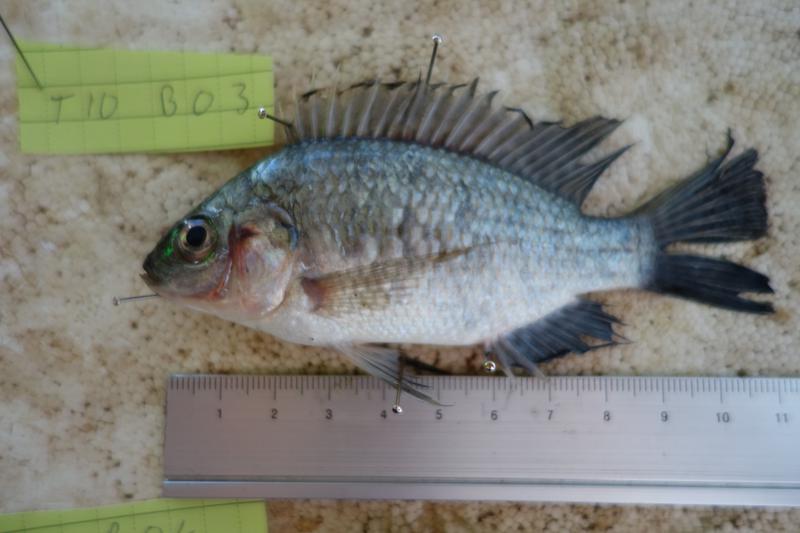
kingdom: Animalia
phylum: Chordata
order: Perciformes
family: Cichlidae
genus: Oreochromis
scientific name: Oreochromis rukwaensis
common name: Lake rukwa tilapia
